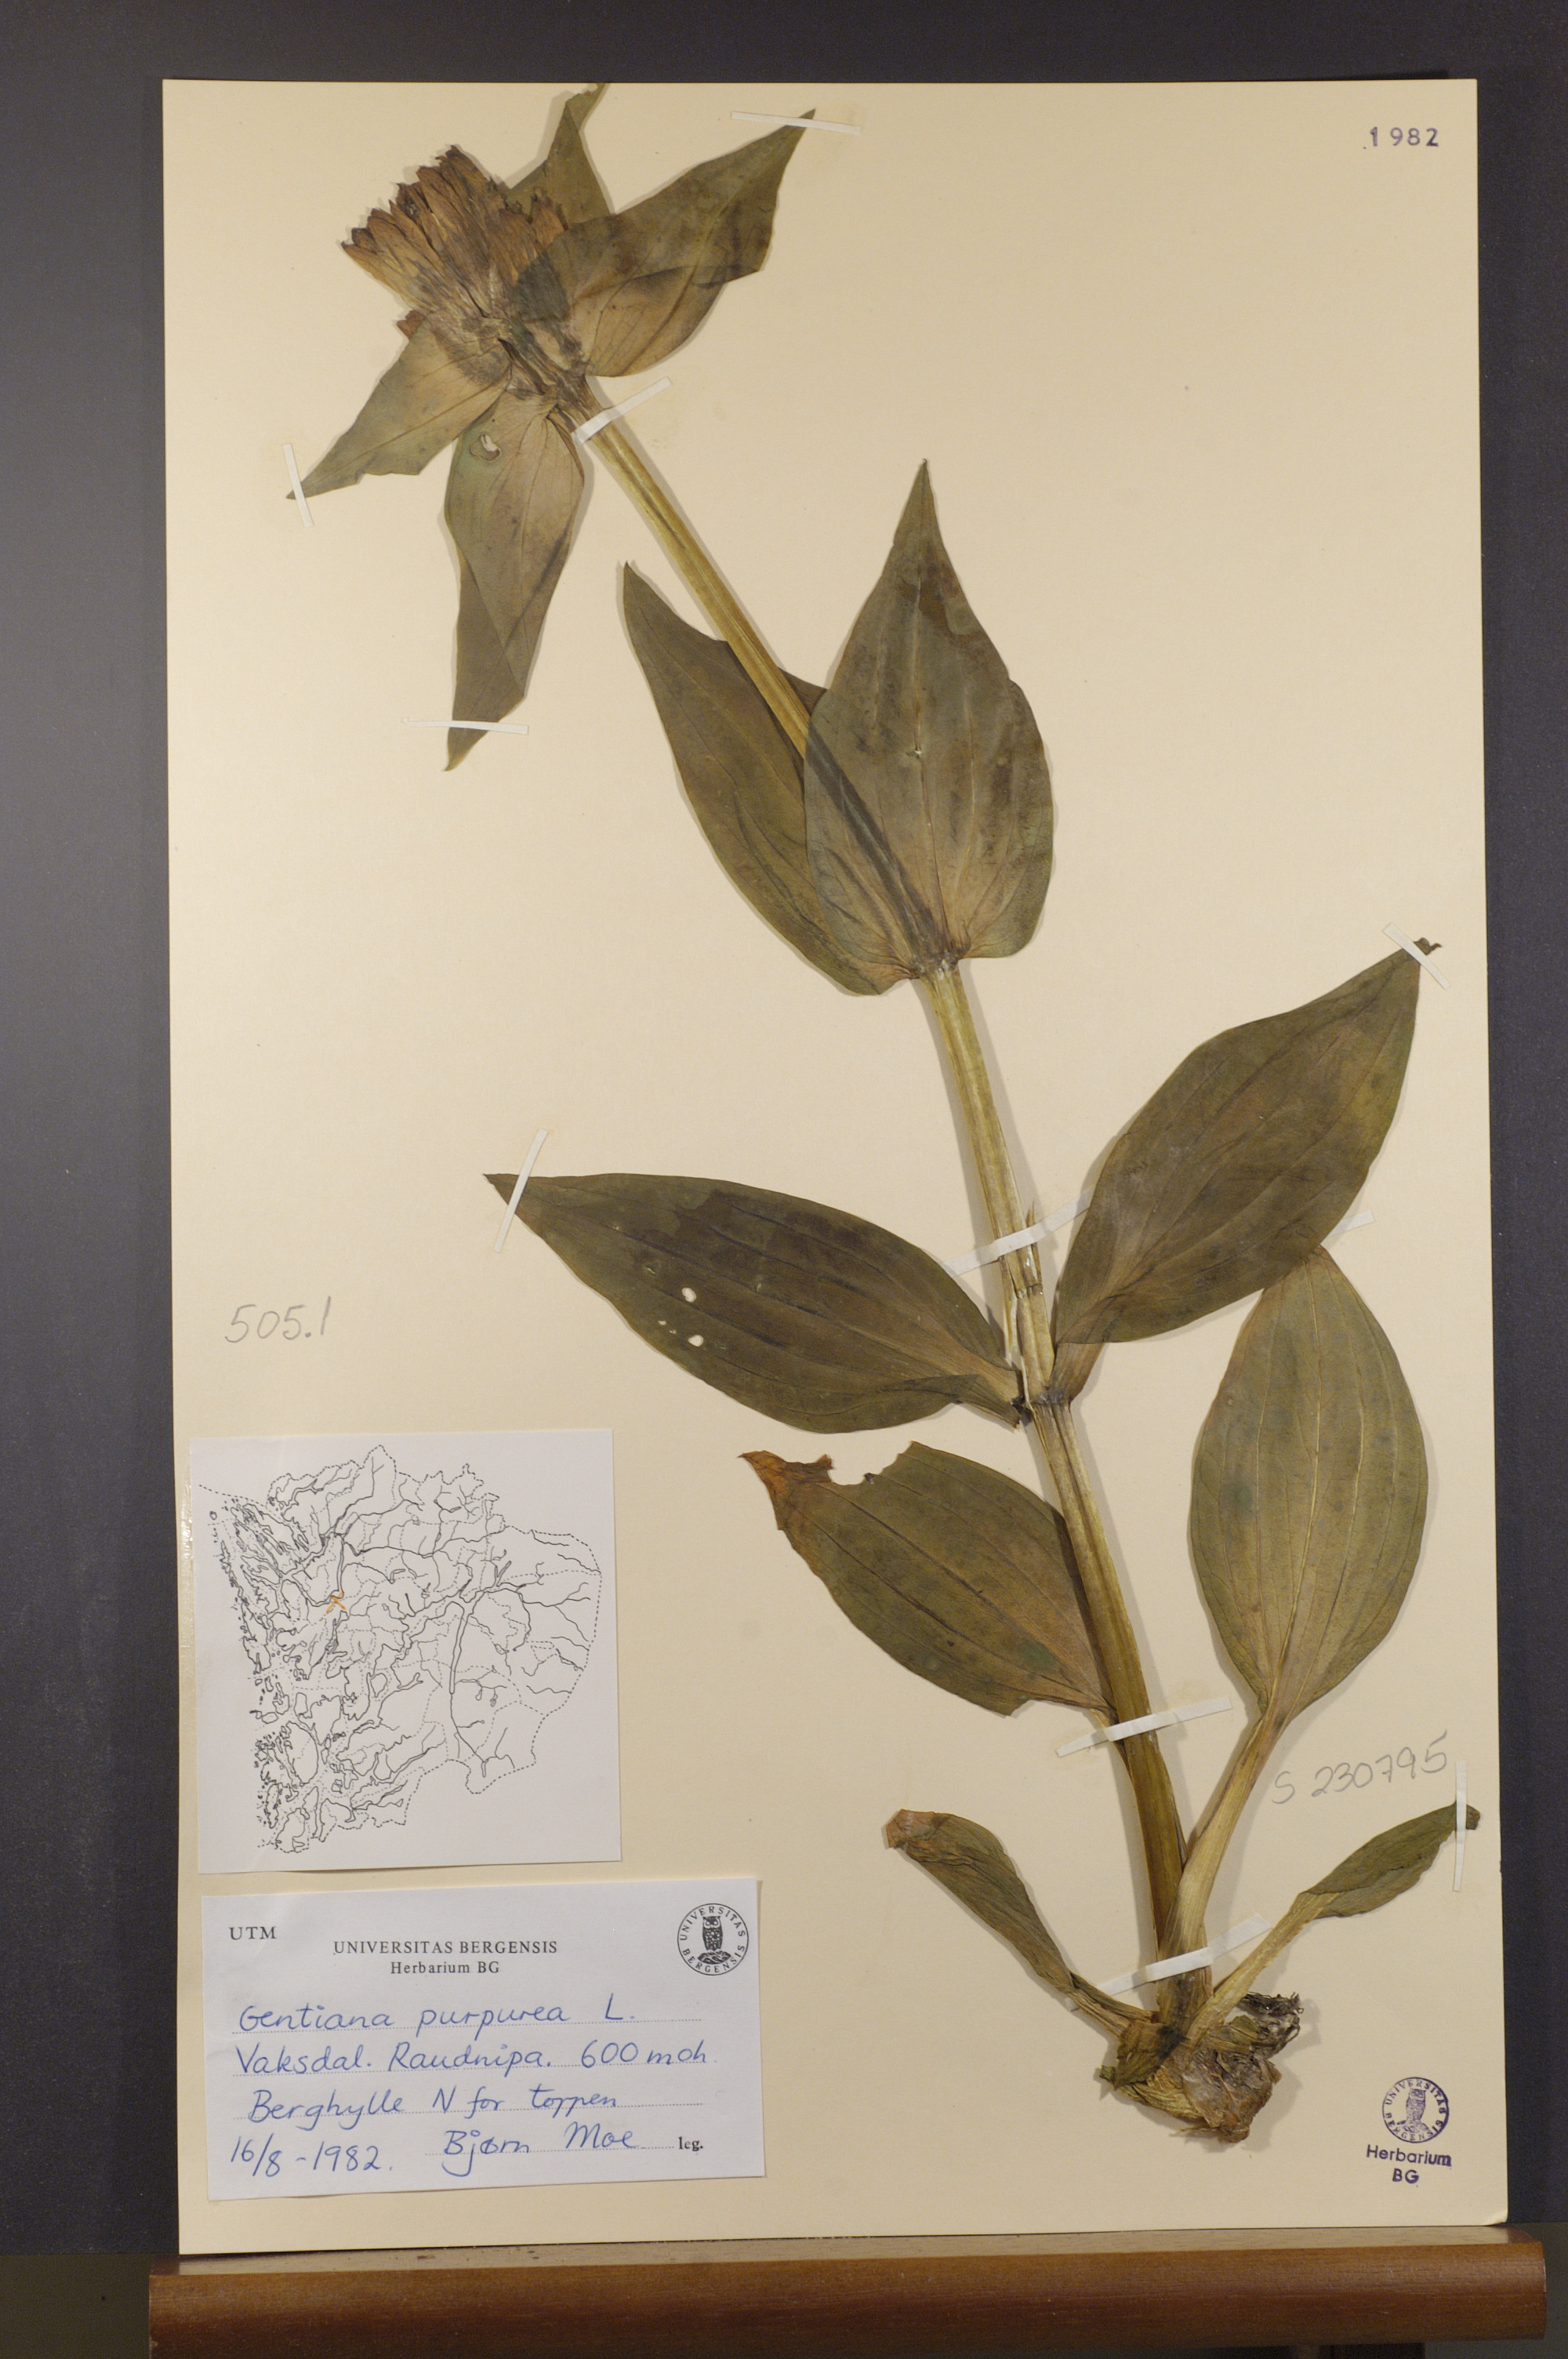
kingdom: Plantae
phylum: Tracheophyta
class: Magnoliopsida
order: Gentianales
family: Gentianaceae
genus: Gentiana
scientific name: Gentiana purpurea
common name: Purple gentian
